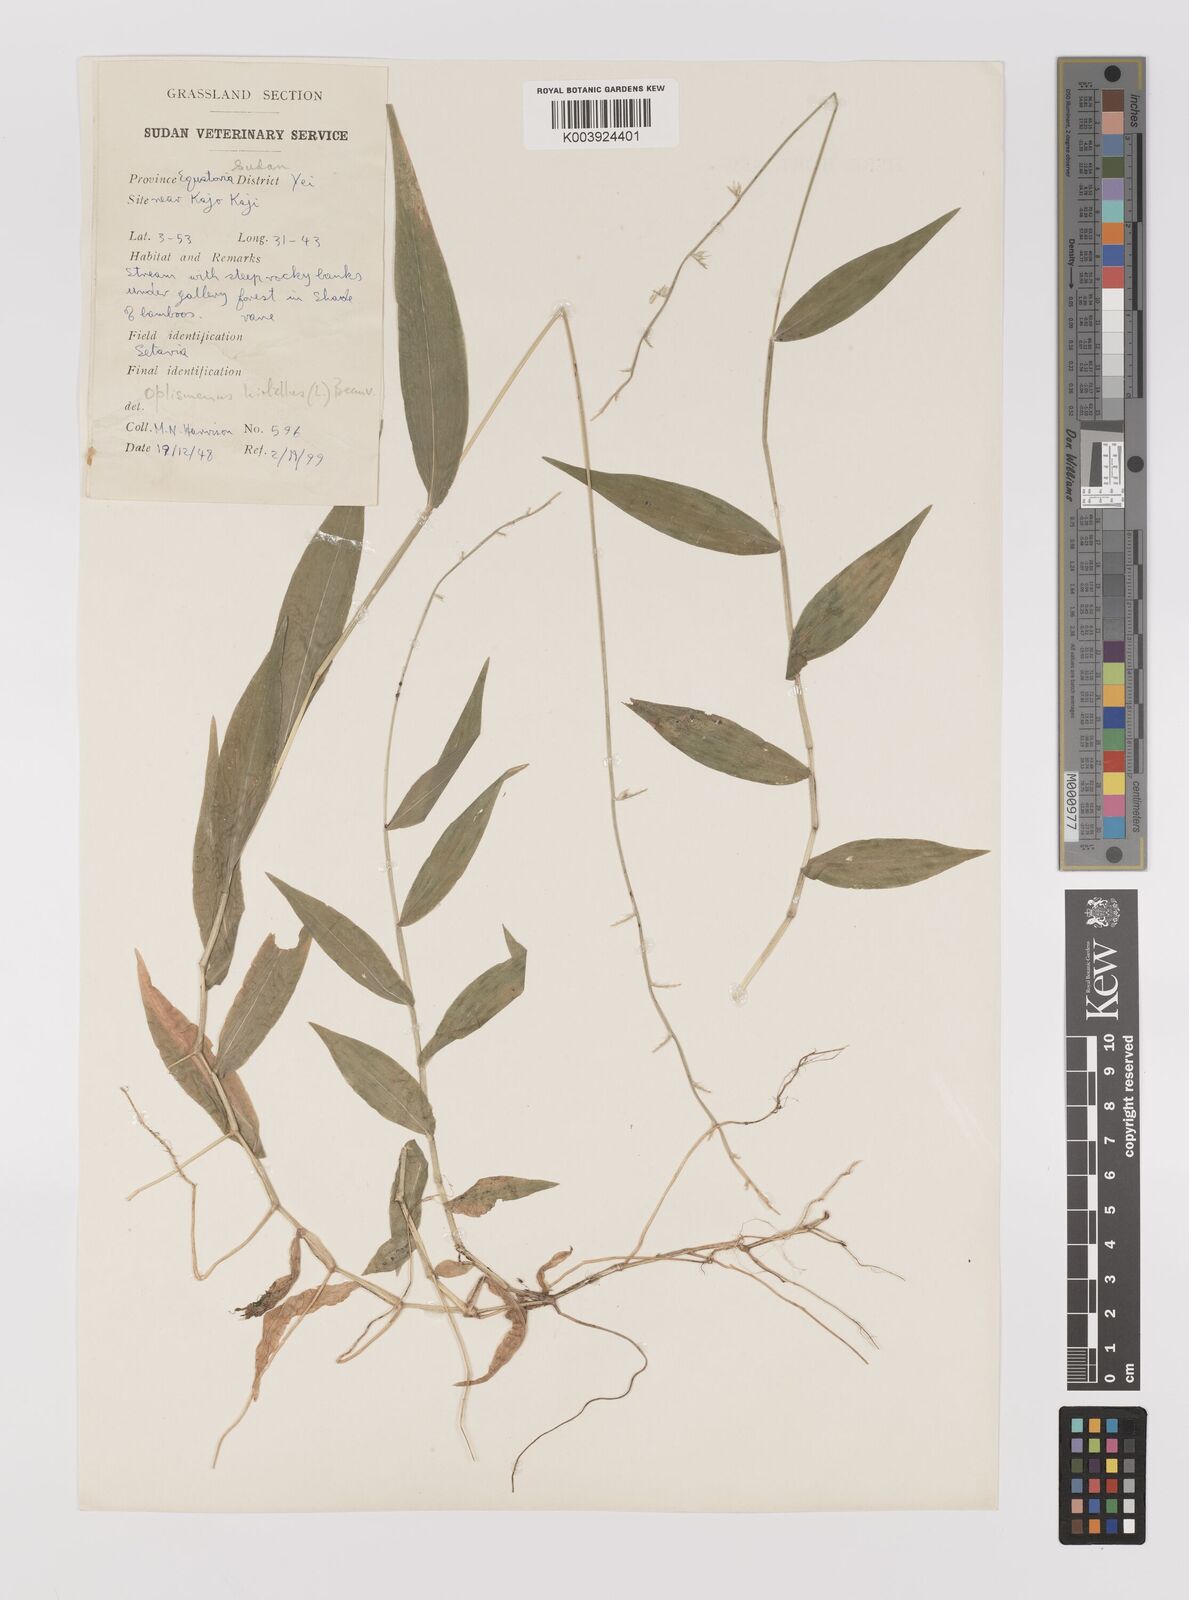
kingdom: Plantae
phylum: Tracheophyta
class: Liliopsida
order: Poales
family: Poaceae
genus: Oplismenus
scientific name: Oplismenus hirtellus
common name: Basketgrass
